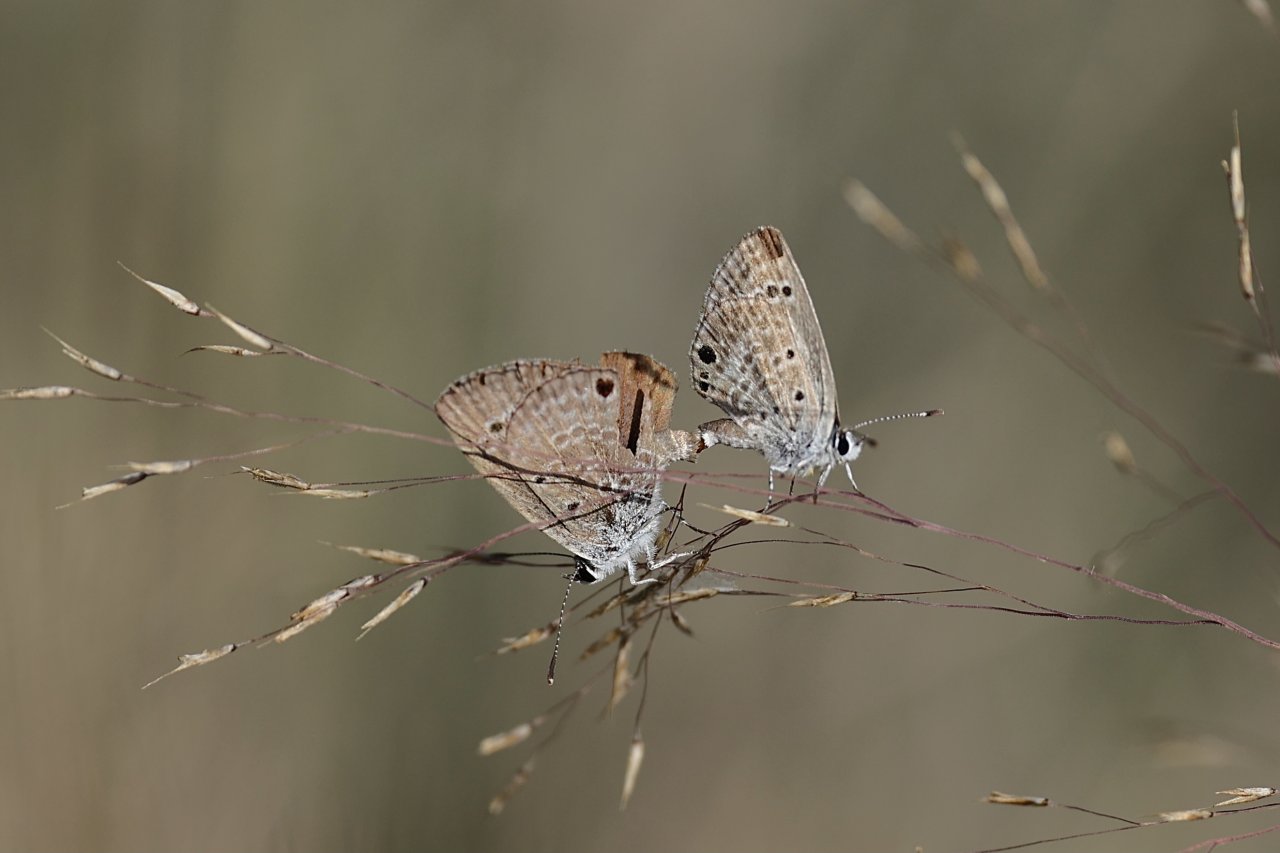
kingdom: Animalia
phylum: Arthropoda
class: Insecta
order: Lepidoptera
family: Lycaenidae
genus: Echinargus
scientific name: Echinargus isola
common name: Reakirt's Blue
